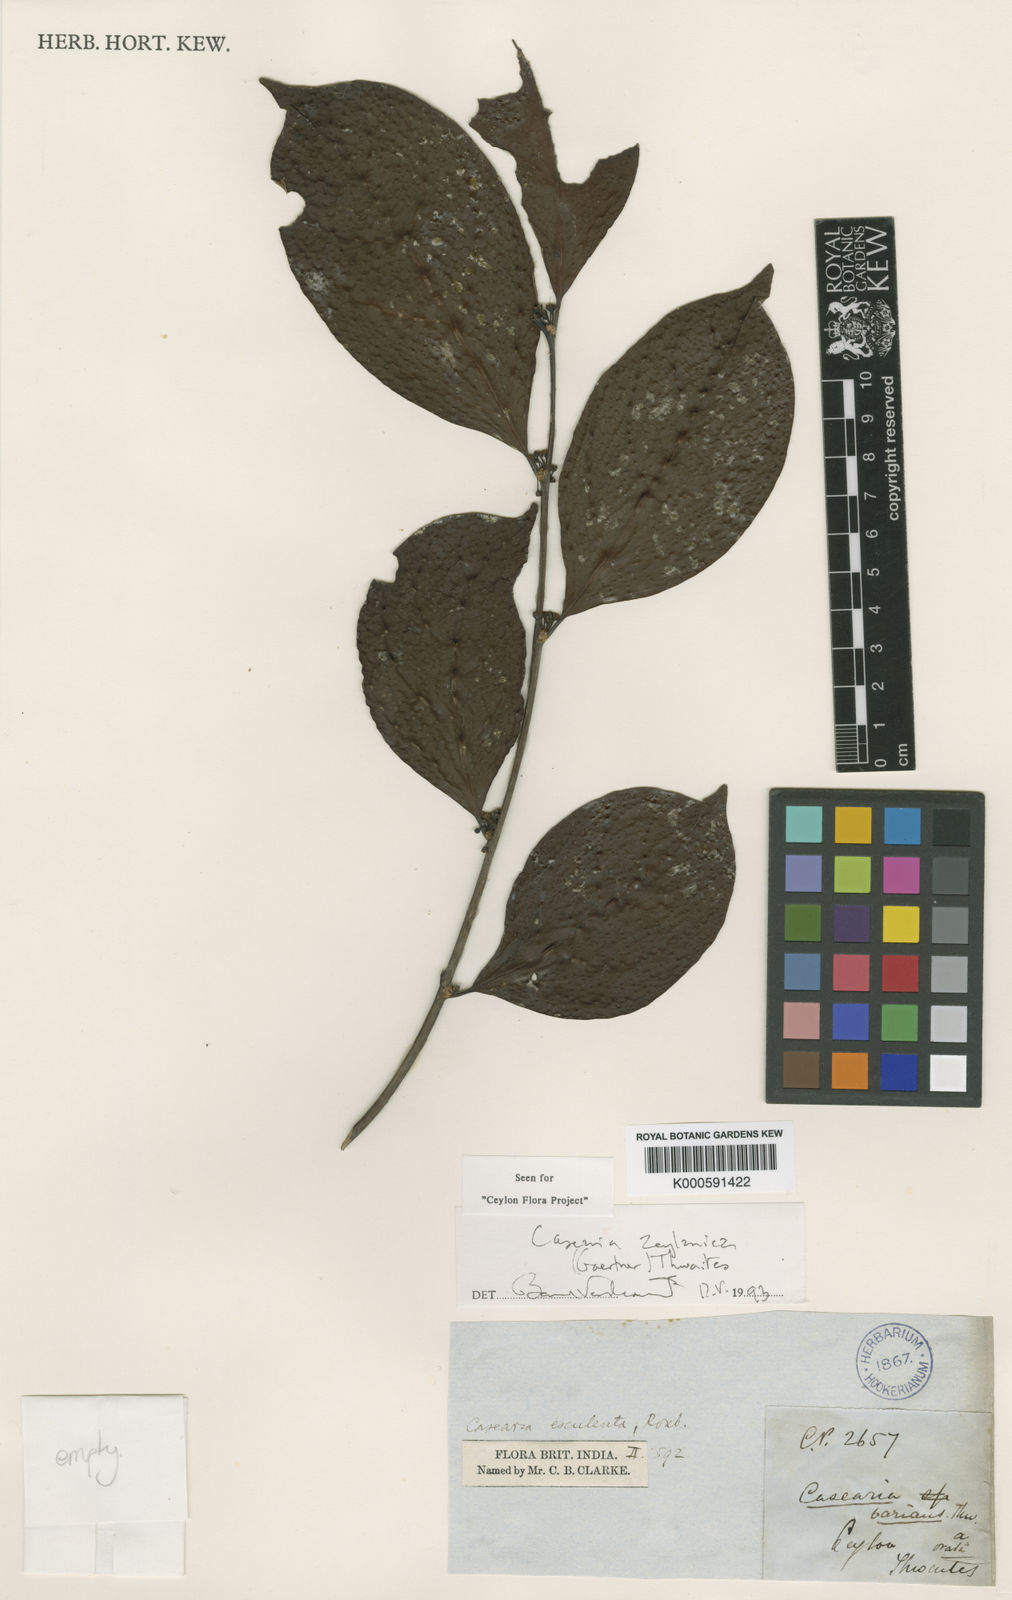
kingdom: Plantae
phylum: Tracheophyta
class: Magnoliopsida
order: Malpighiales
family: Salicaceae
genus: Casearia
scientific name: Casearia zeylanica
